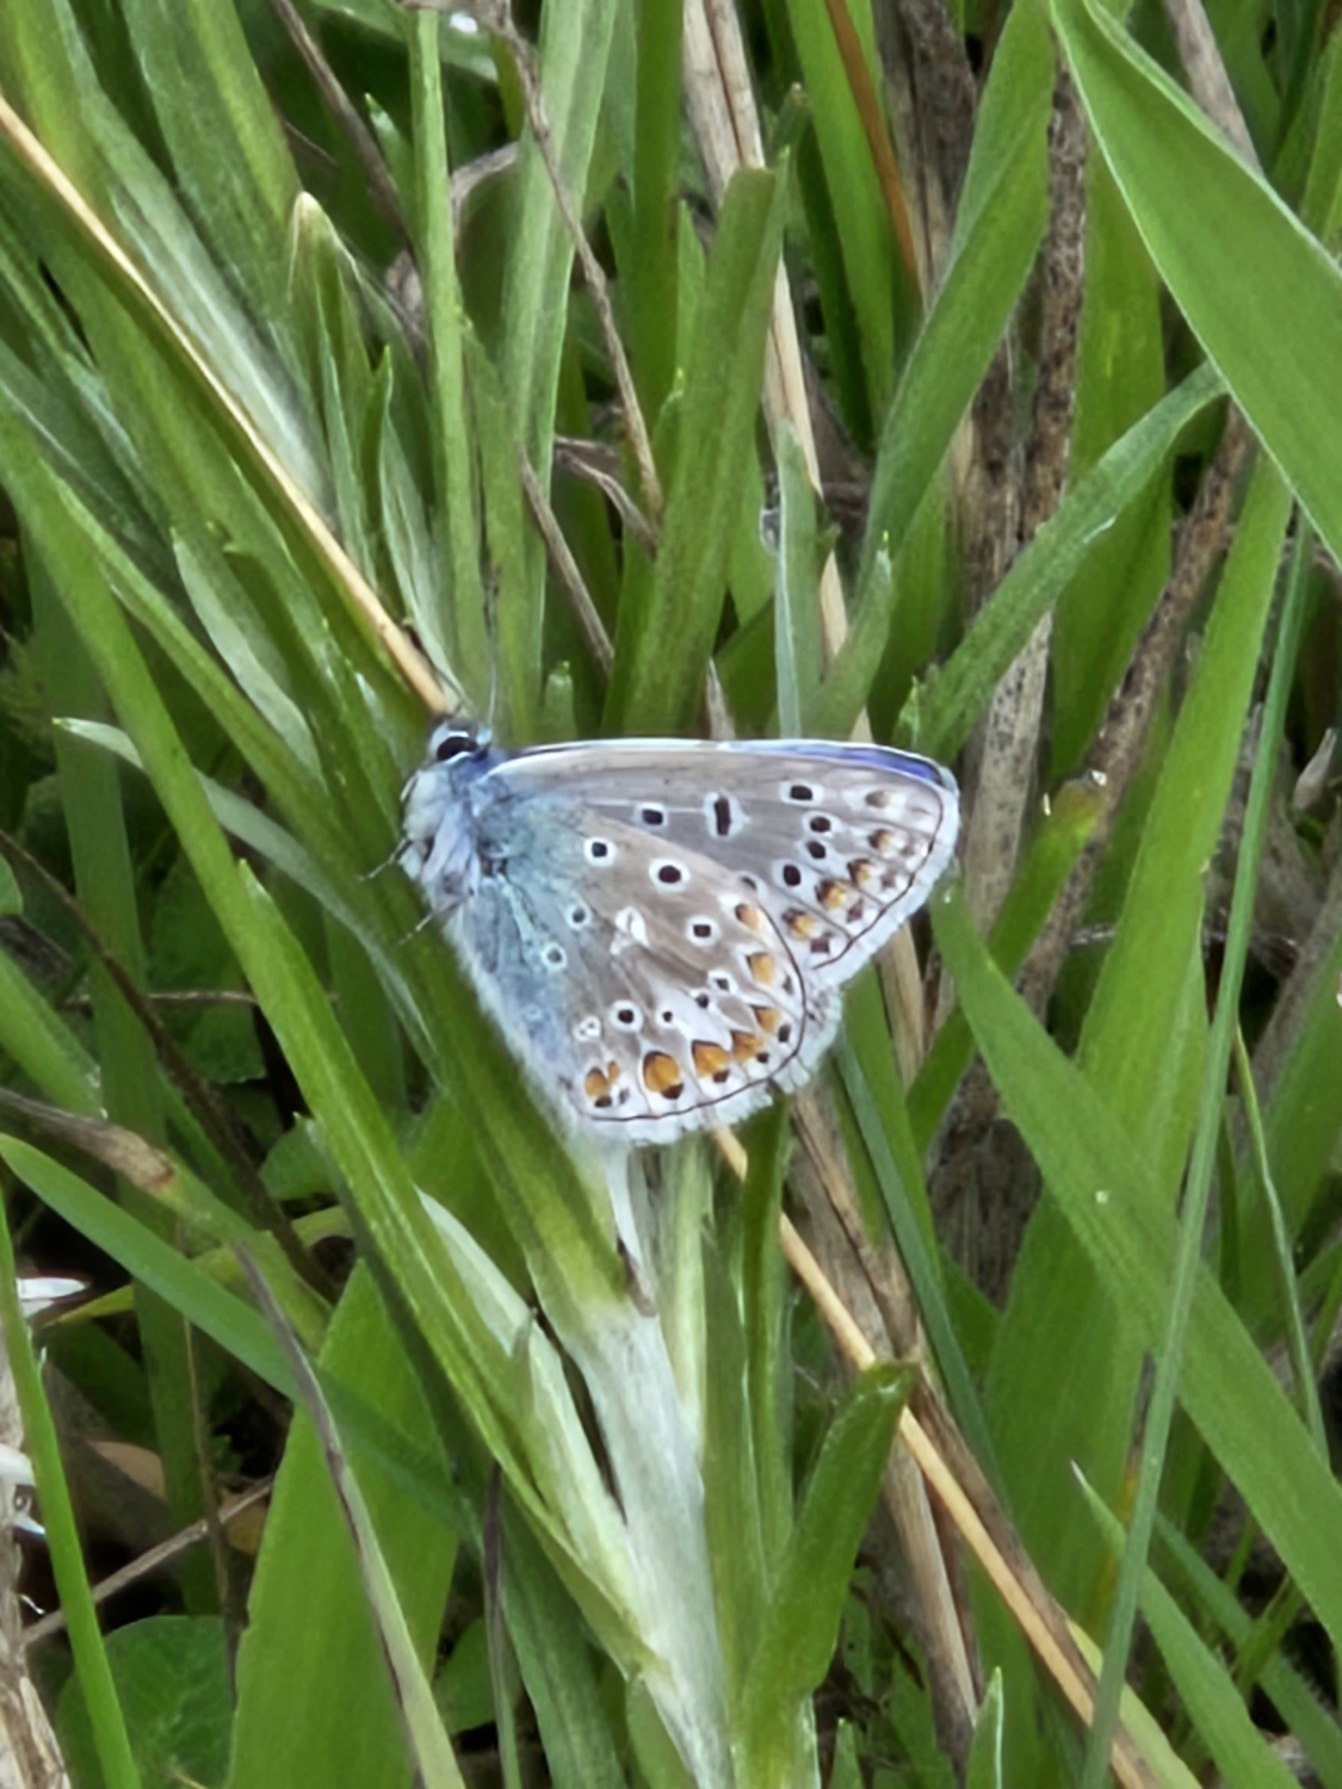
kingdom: Animalia
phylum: Arthropoda
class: Insecta
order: Lepidoptera
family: Lycaenidae
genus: Polyommatus
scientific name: Polyommatus icarus
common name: Almindelig blåfugl
